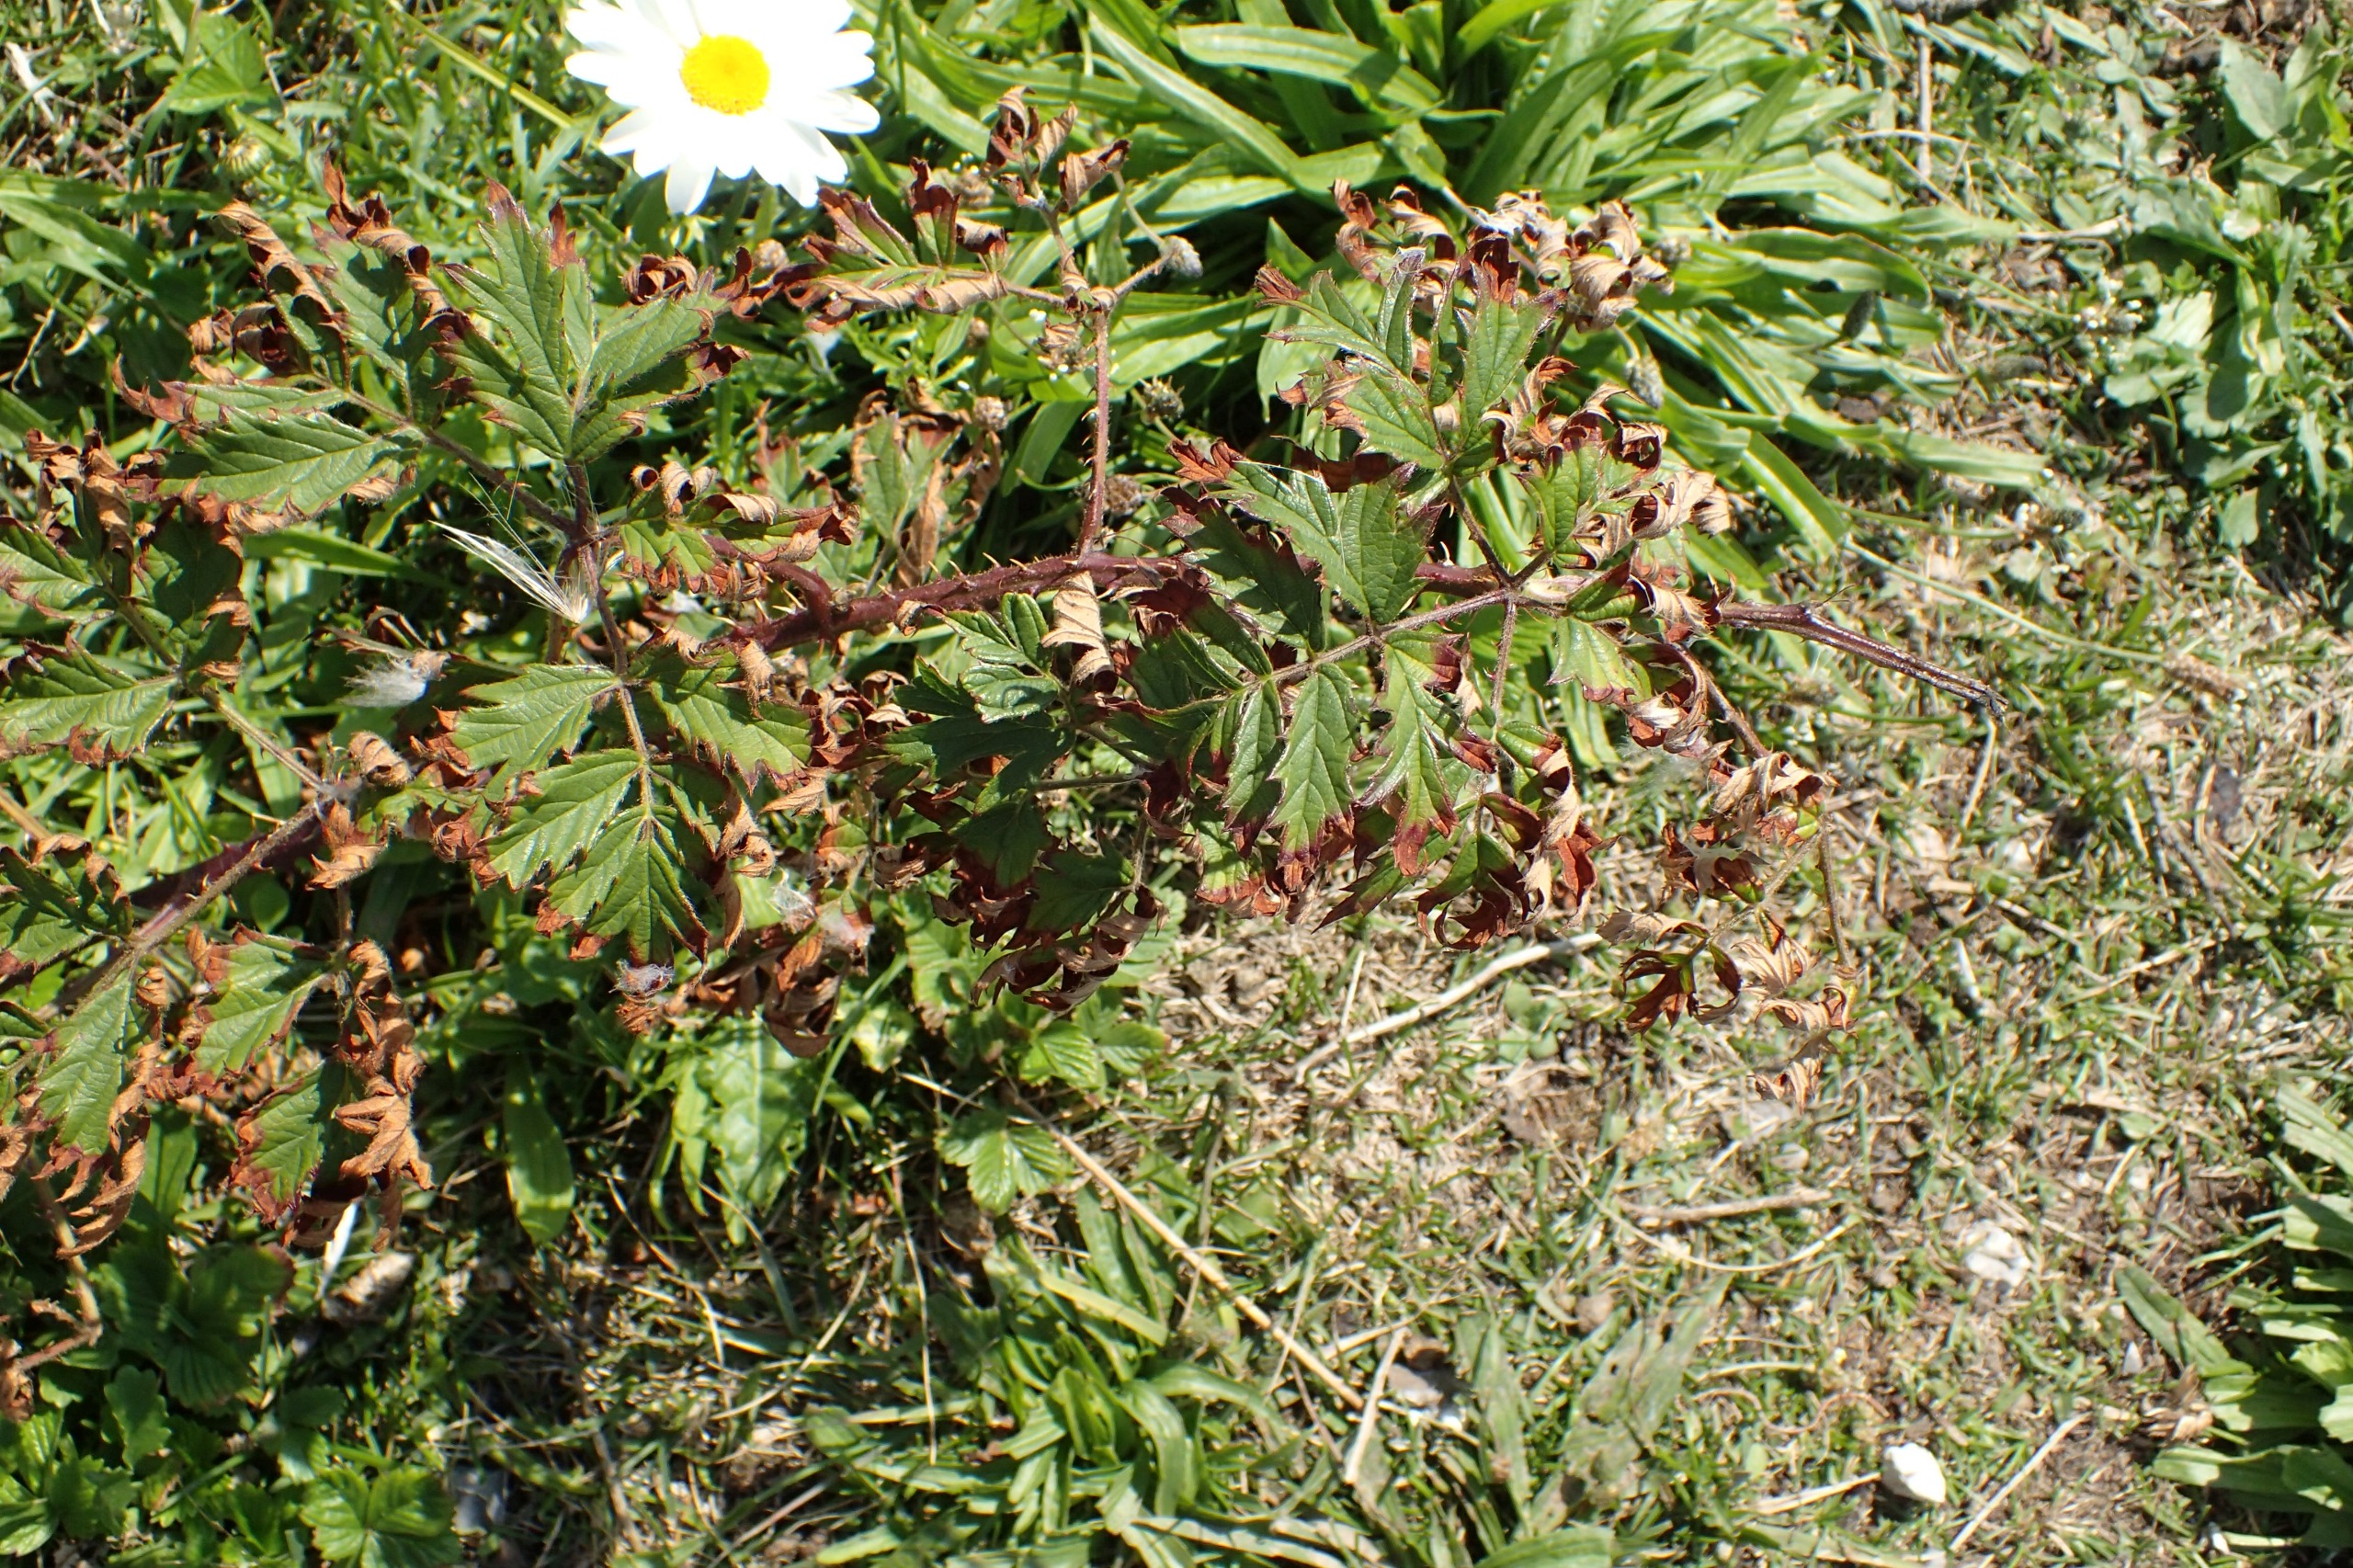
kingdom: Plantae
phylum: Tracheophyta
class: Magnoliopsida
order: Rosales
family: Rosaceae
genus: Rubus
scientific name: Rubus laciniatus
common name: Fliget brombær
